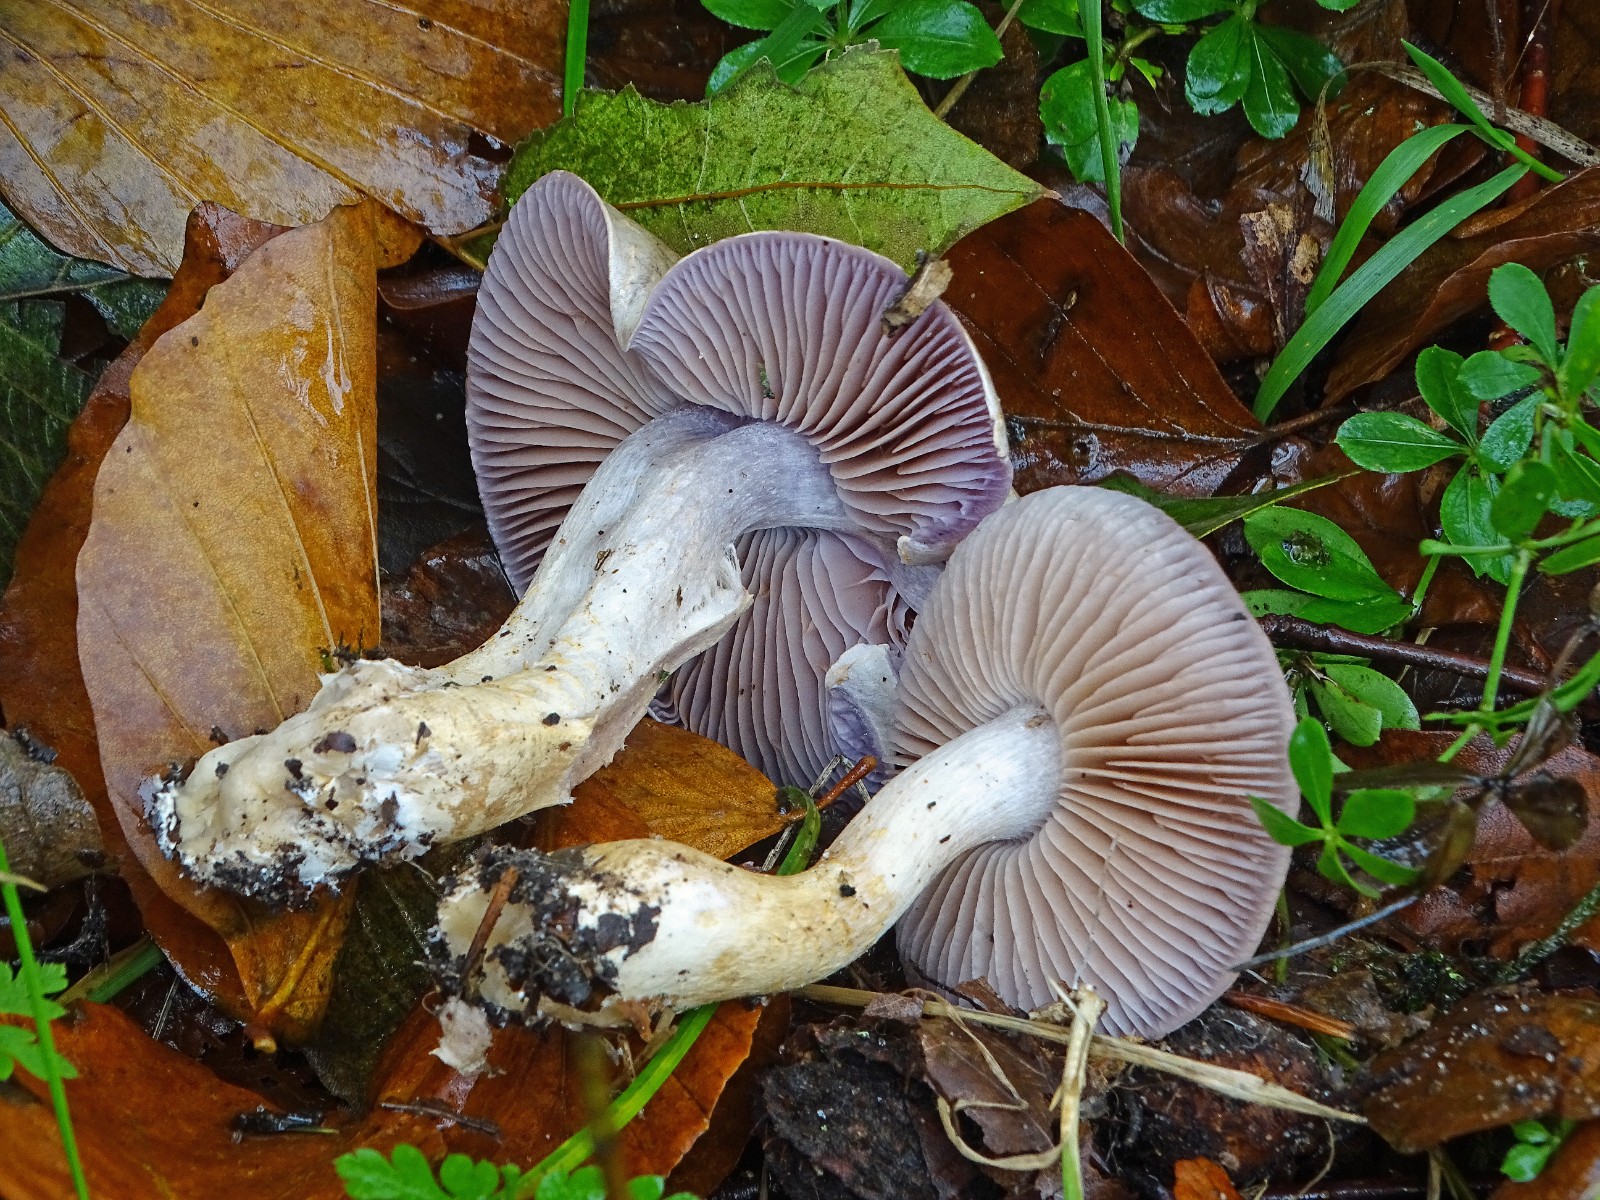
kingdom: Fungi
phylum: Basidiomycota
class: Agaricomycetes
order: Agaricales
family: Cortinariaceae
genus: Cortinarius
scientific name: Cortinarius
